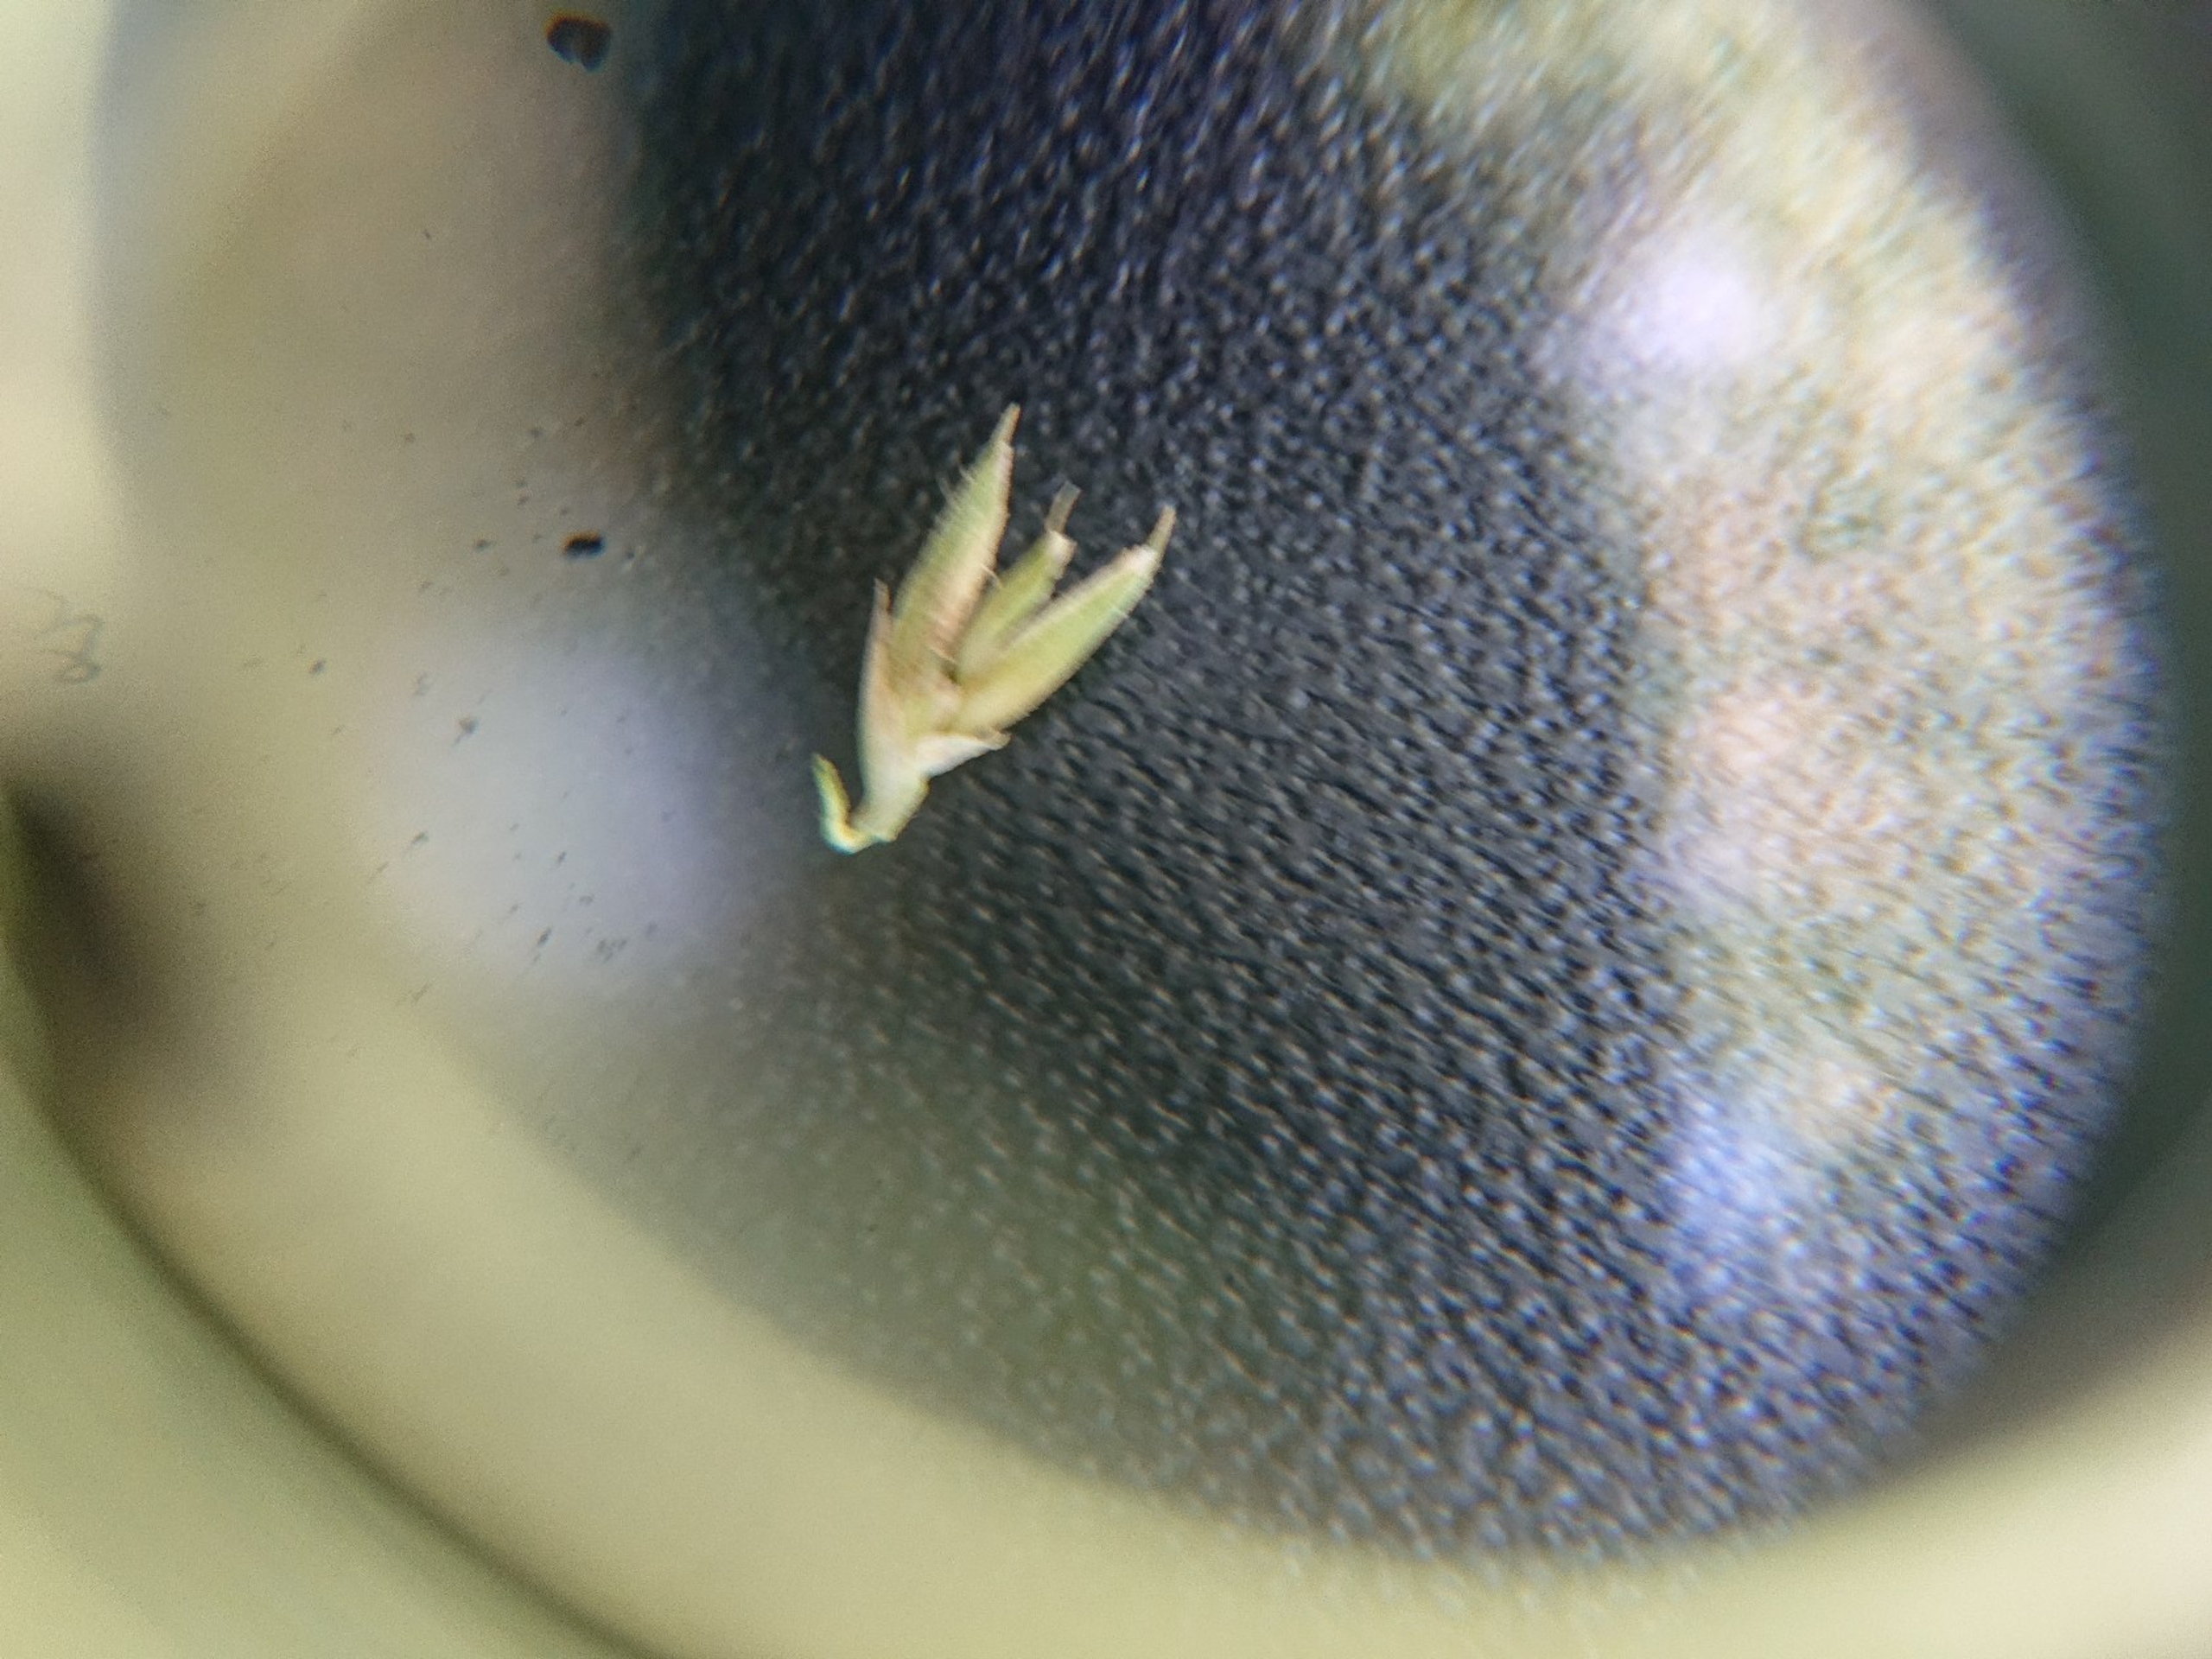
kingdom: Plantae
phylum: Tracheophyta
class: Liliopsida
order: Poales
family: Poaceae
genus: Dactylis
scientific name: Dactylis glomerata
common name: Almindelig hundegræs
